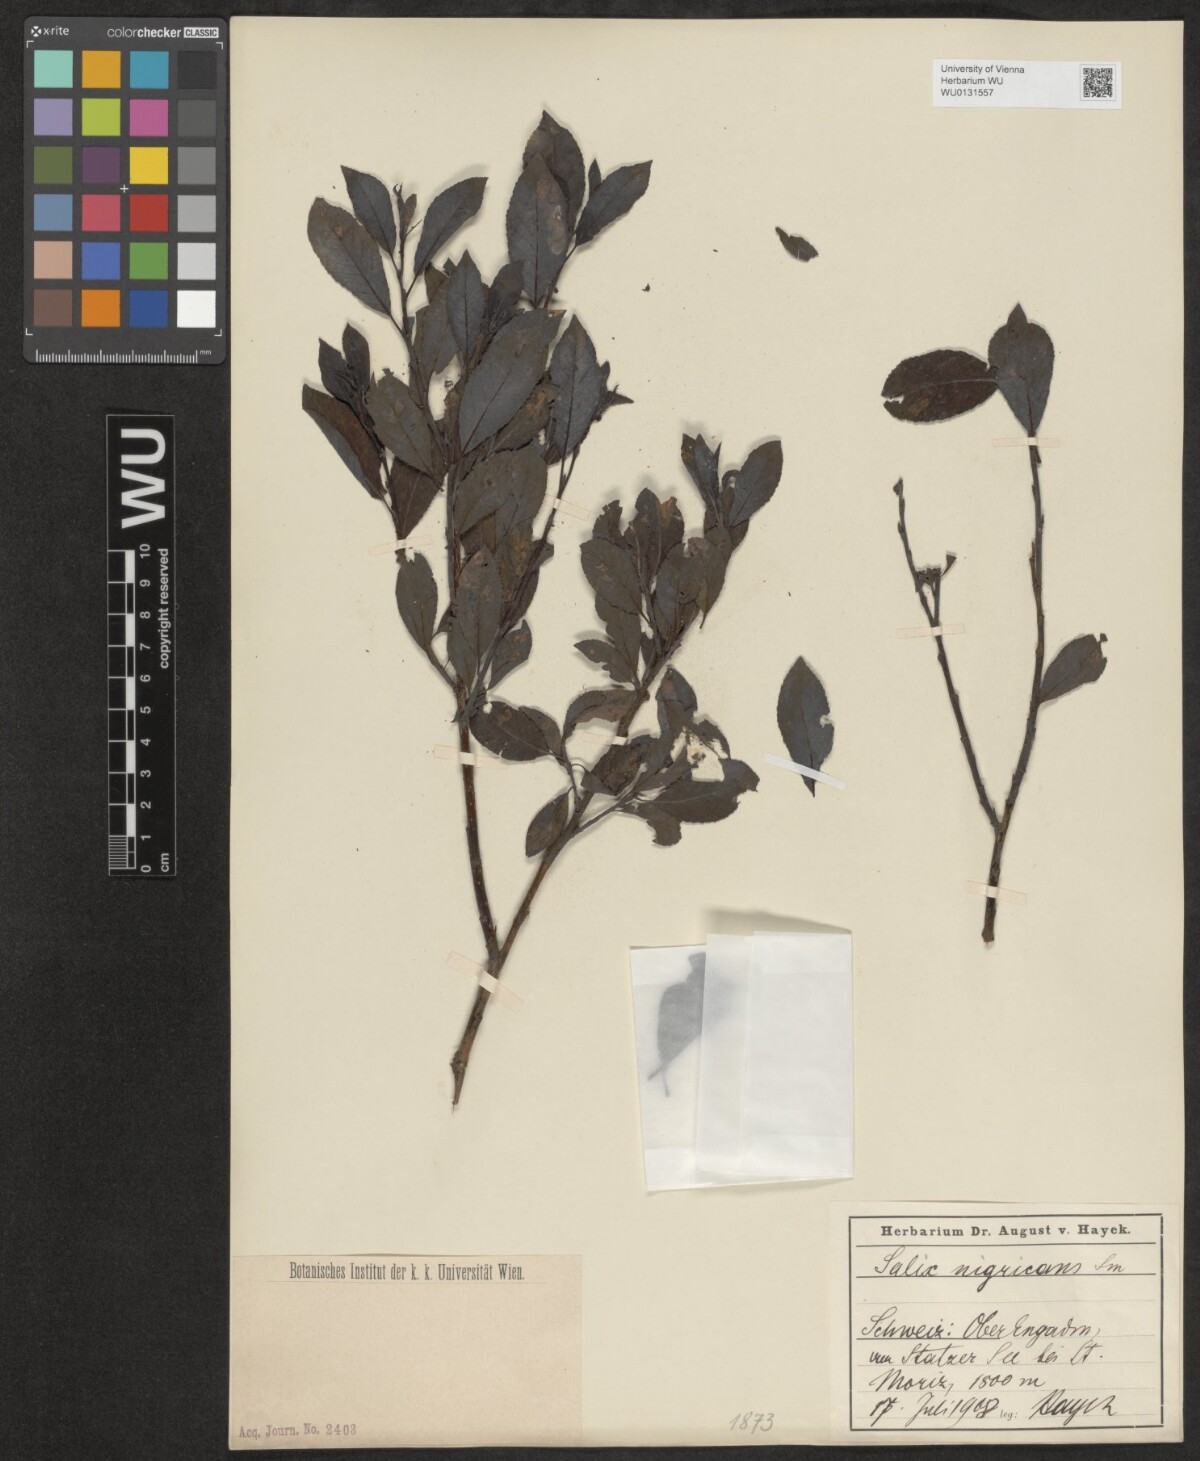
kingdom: Plantae
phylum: Tracheophyta
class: Magnoliopsida
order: Malpighiales
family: Salicaceae
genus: Salix
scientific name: Salix myrsinifolia
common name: Dark-leaved willow
